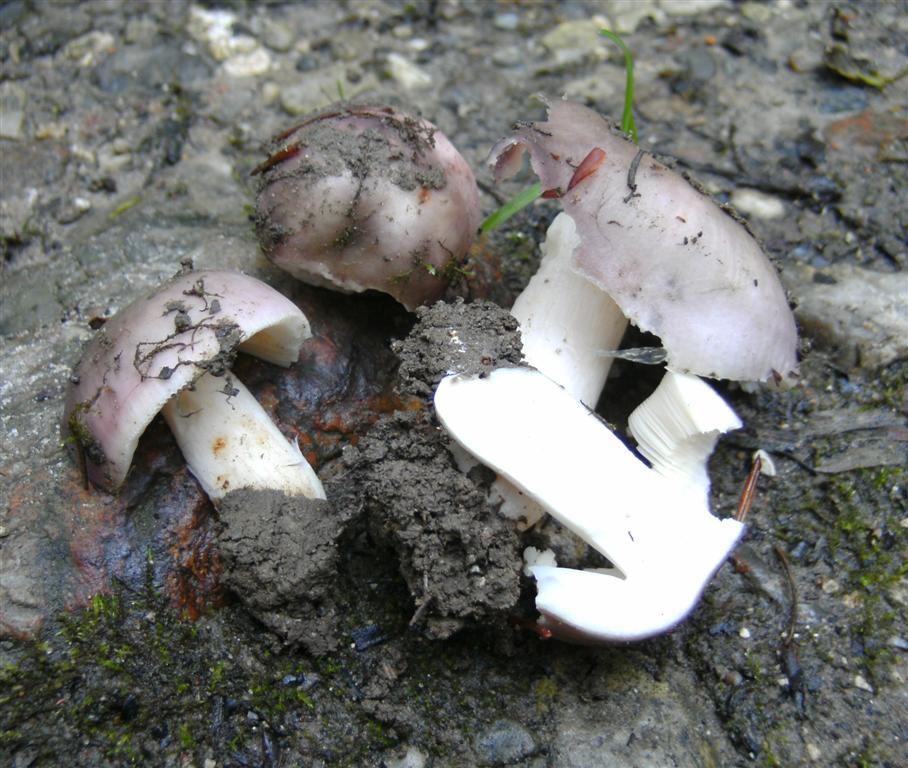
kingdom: Fungi
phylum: Basidiomycota
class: Agaricomycetes
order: Russulales
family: Russulaceae
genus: Russula
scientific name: Russula
